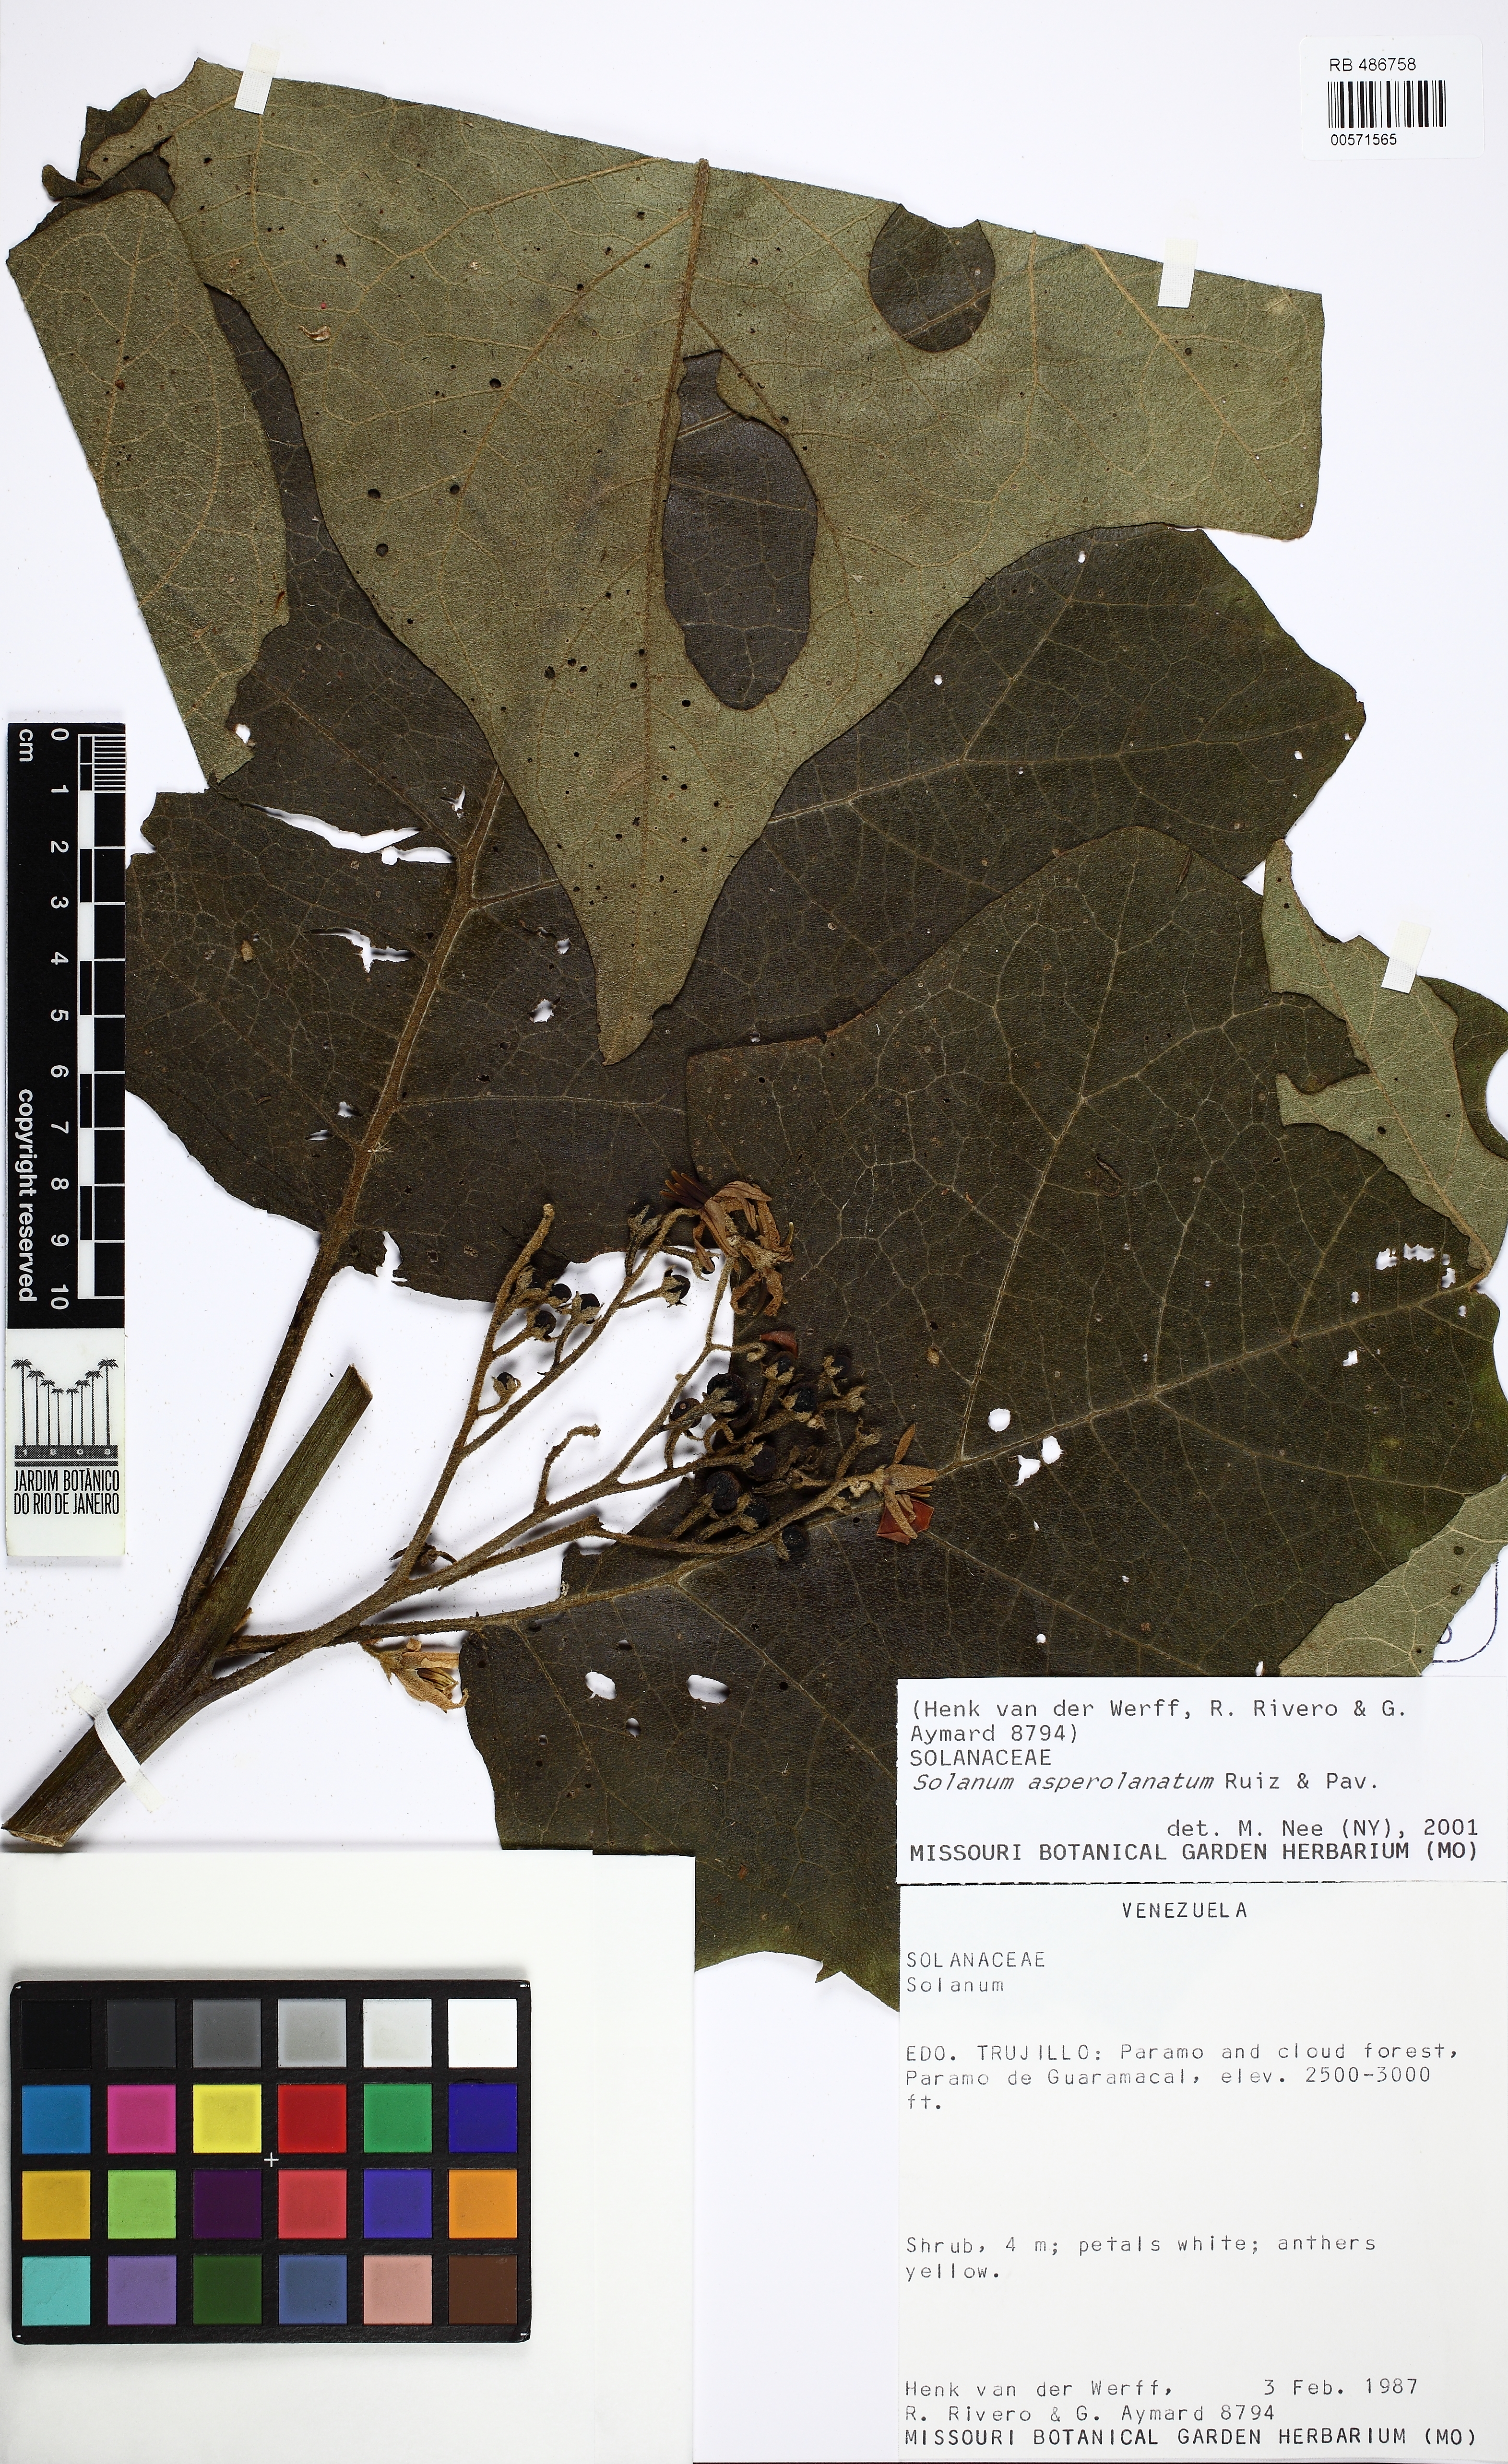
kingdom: Plantae
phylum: Tracheophyta
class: Magnoliopsida
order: Solanales
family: Solanaceae
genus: Solanum
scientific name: Solanum asperolanatum
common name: Devil's-fig
